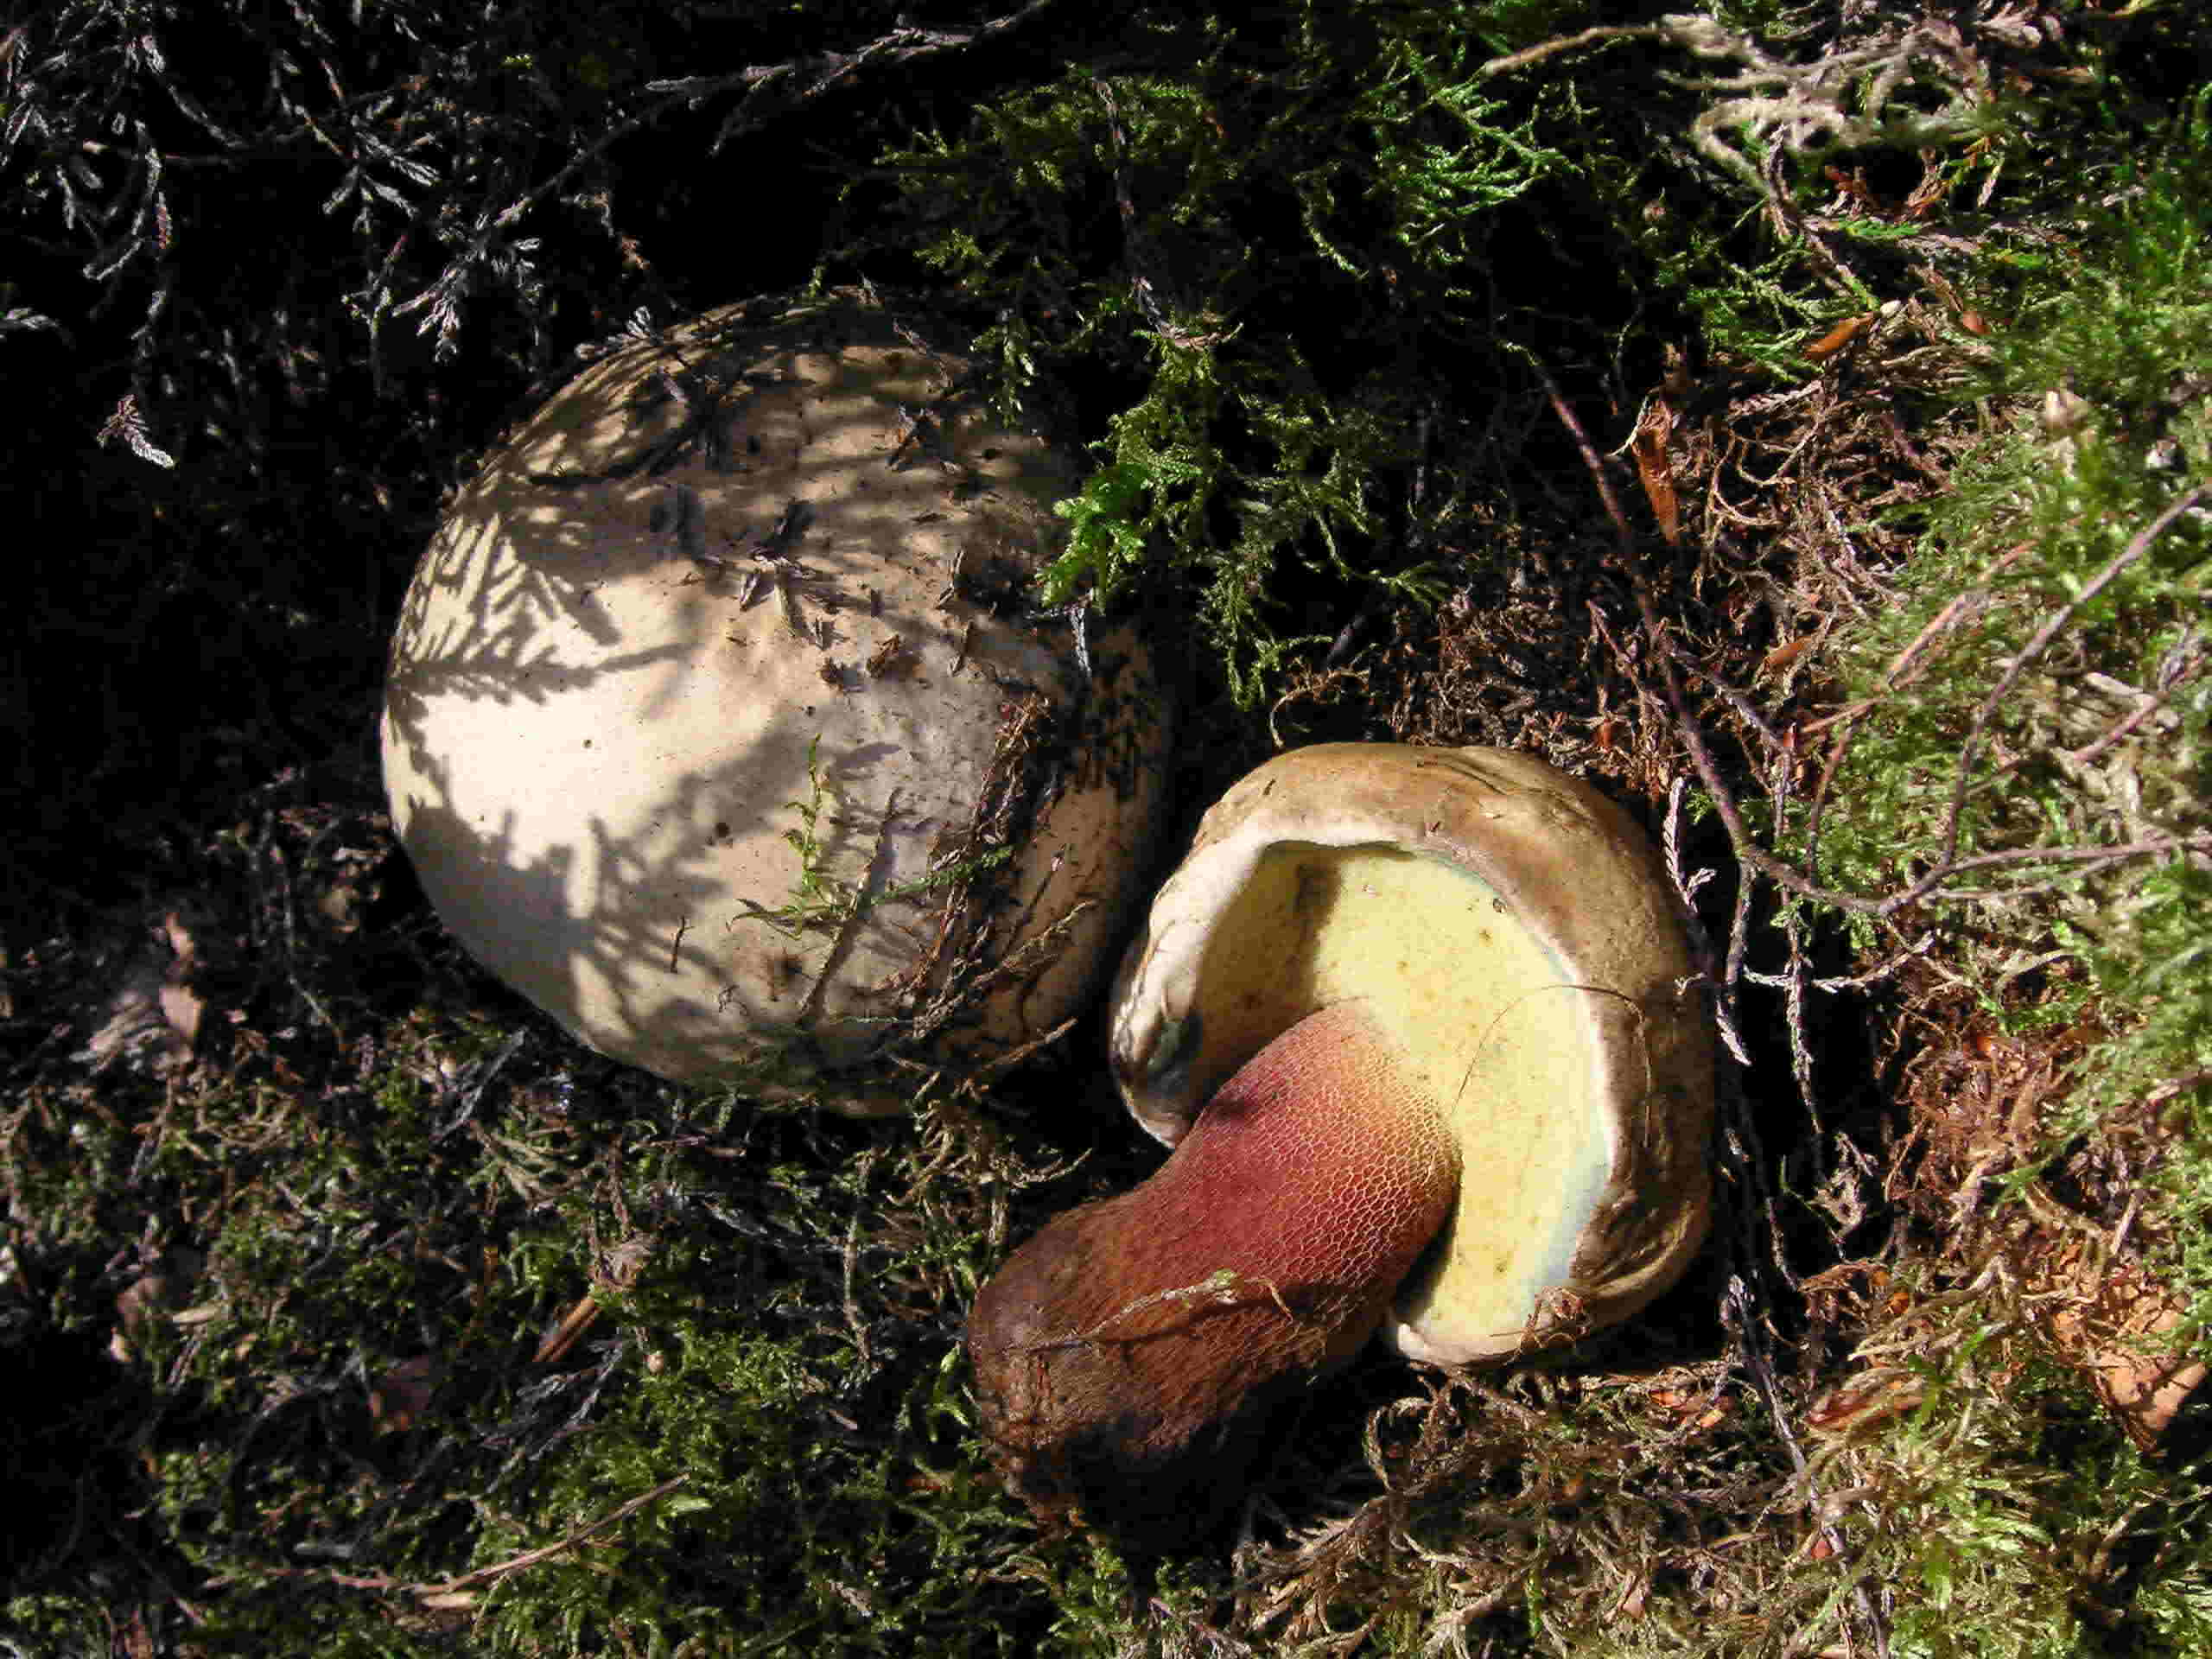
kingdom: Fungi
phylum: Basidiomycota
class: Agaricomycetes
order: Boletales
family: Boletaceae
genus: Caloboletus
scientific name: Caloboletus calopus
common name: skønfodet rørhat
